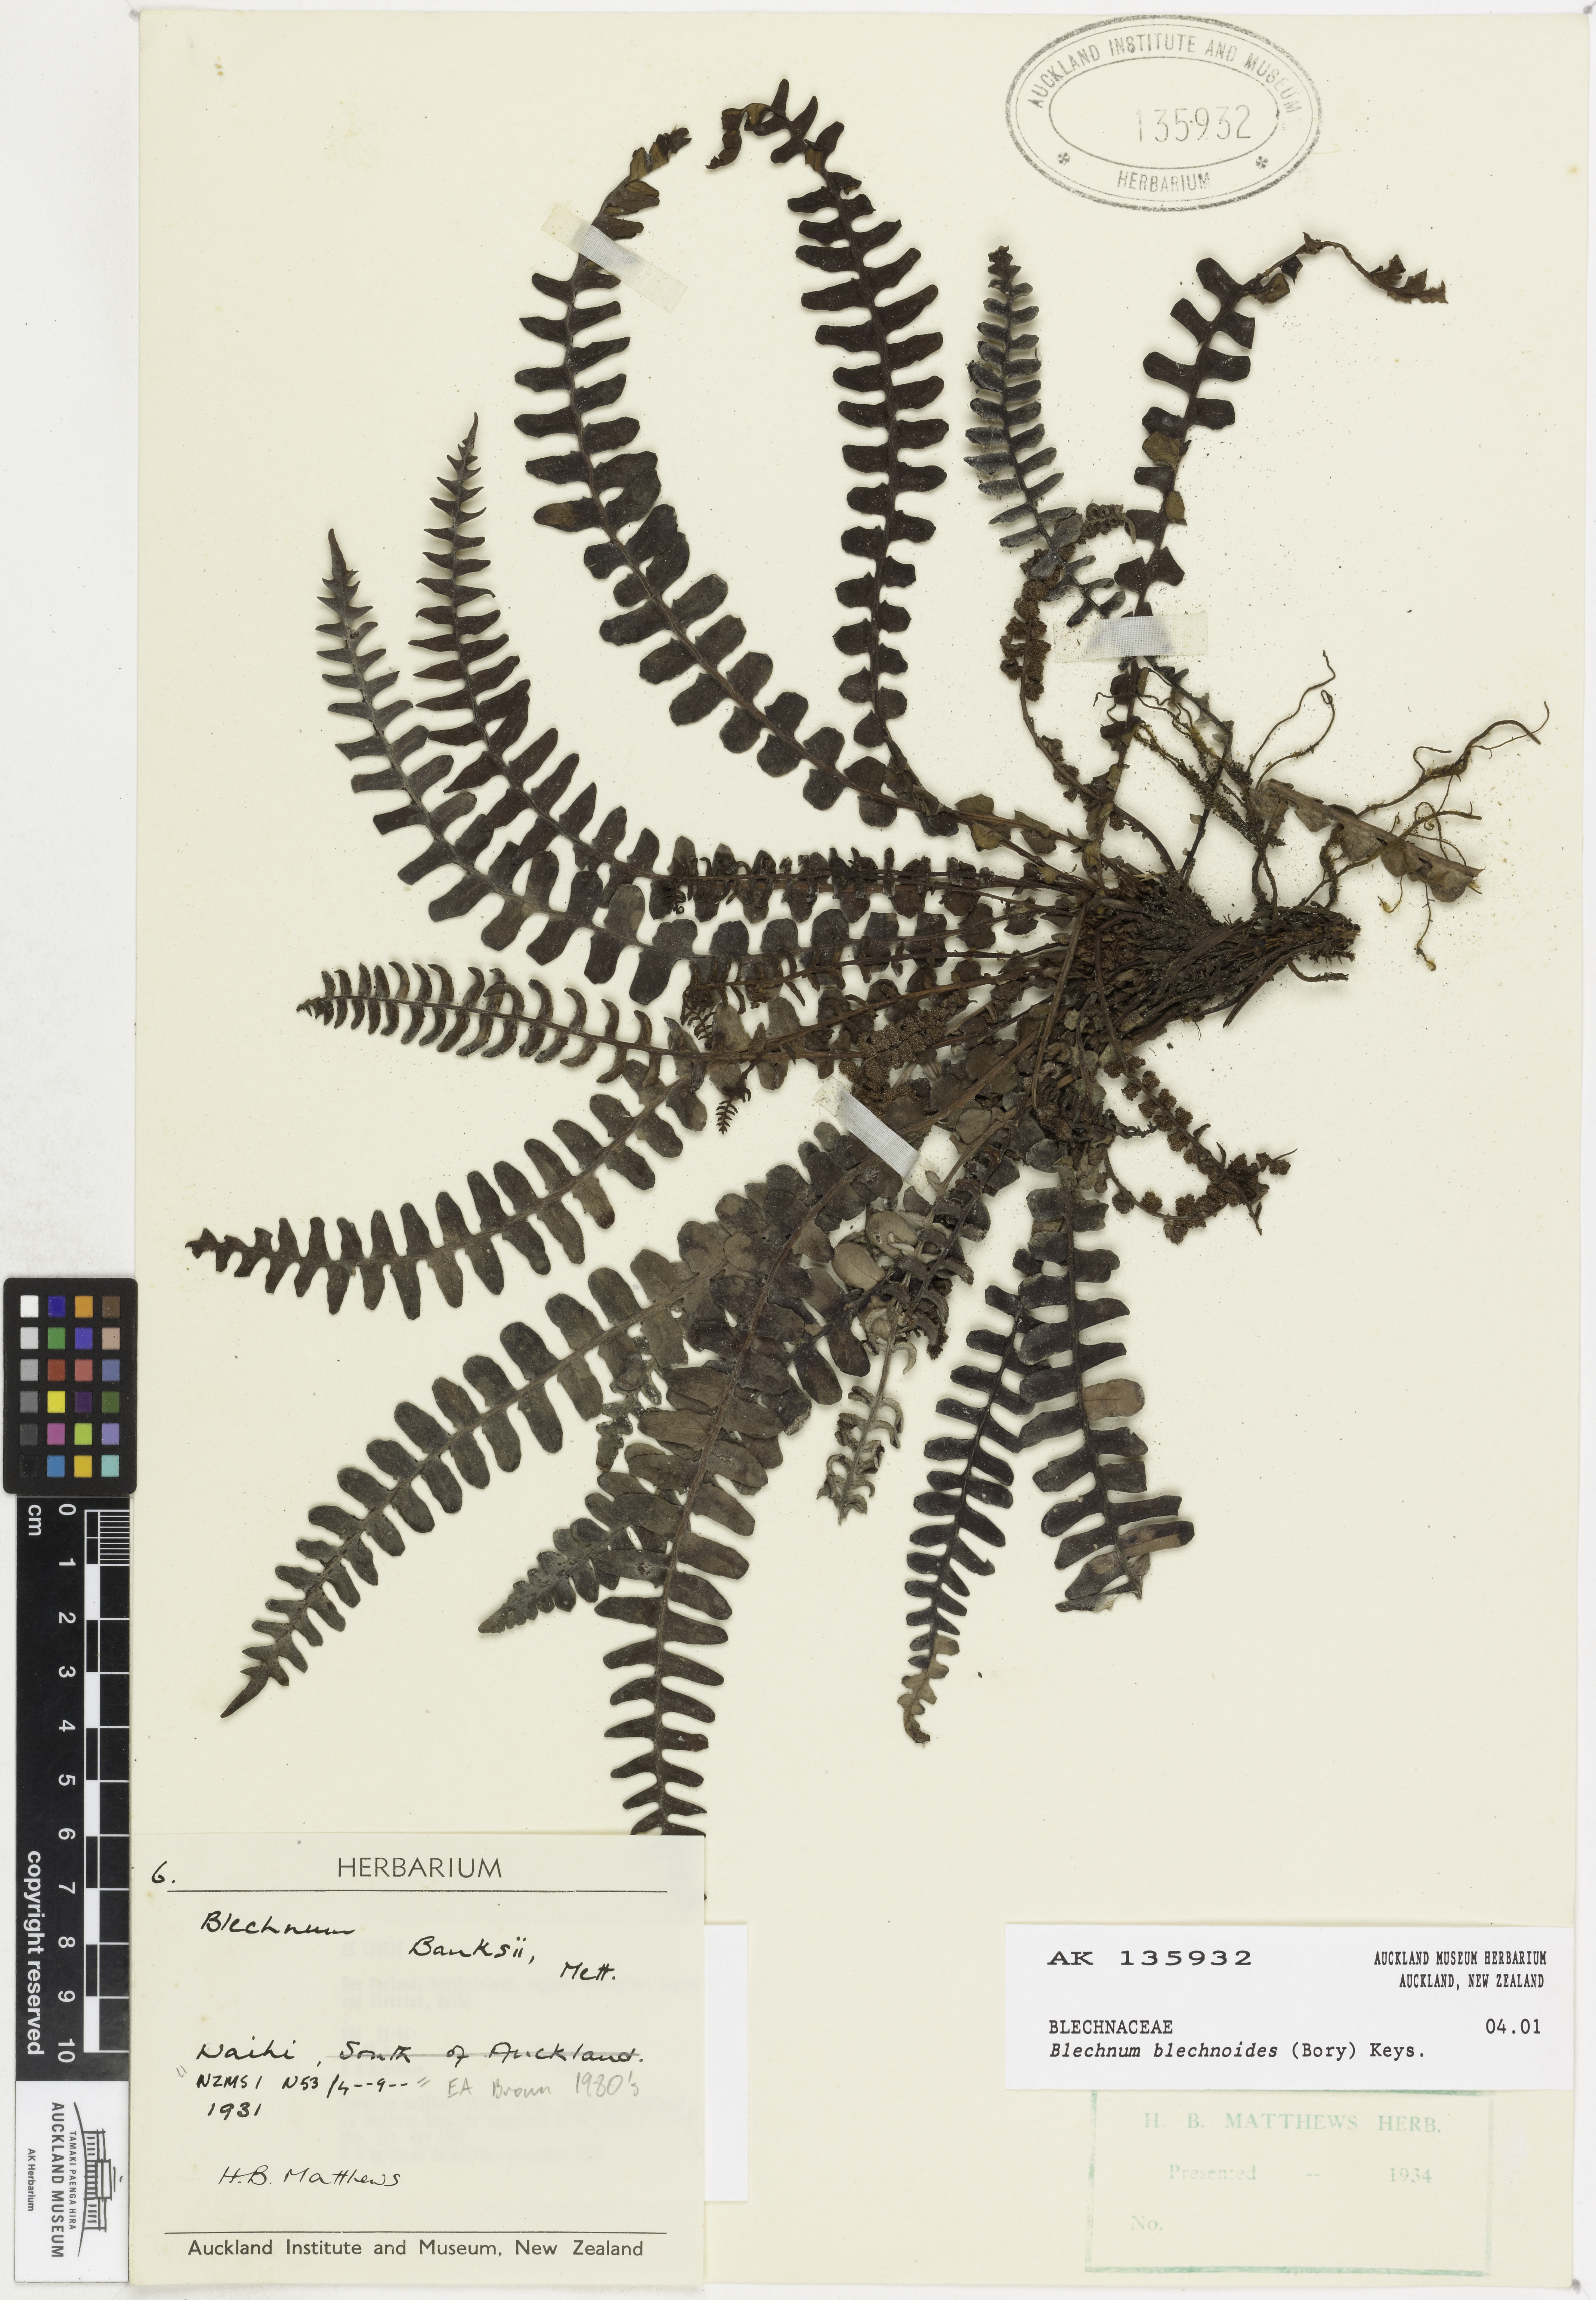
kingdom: Plantae
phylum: Tracheophyta
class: Polypodiopsida
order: Polypodiales
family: Blechnaceae
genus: Austroblechnum
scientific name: Austroblechnum leyboldtianum
